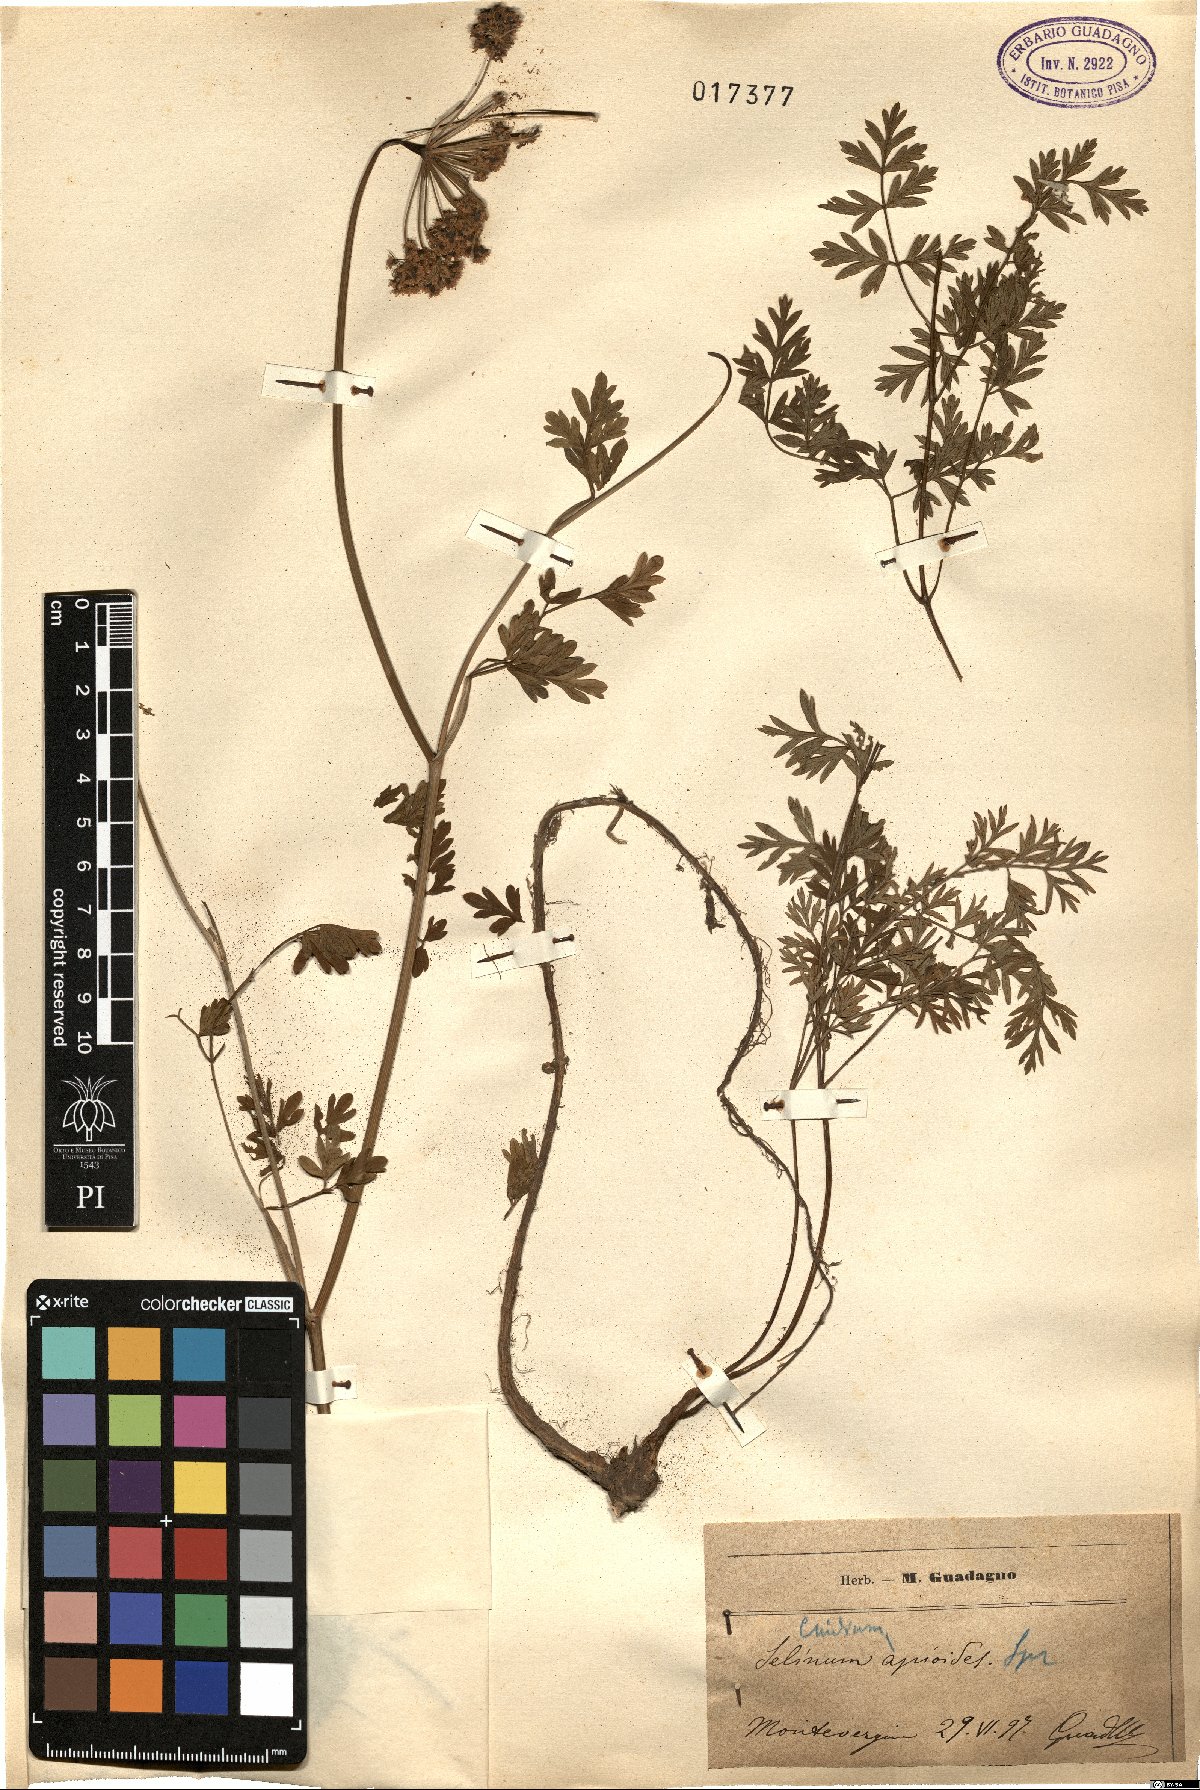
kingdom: Plantae
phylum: Tracheophyta
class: Magnoliopsida
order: Apiales
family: Apiaceae
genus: Katapsuxis
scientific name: Katapsuxis silaifolia
